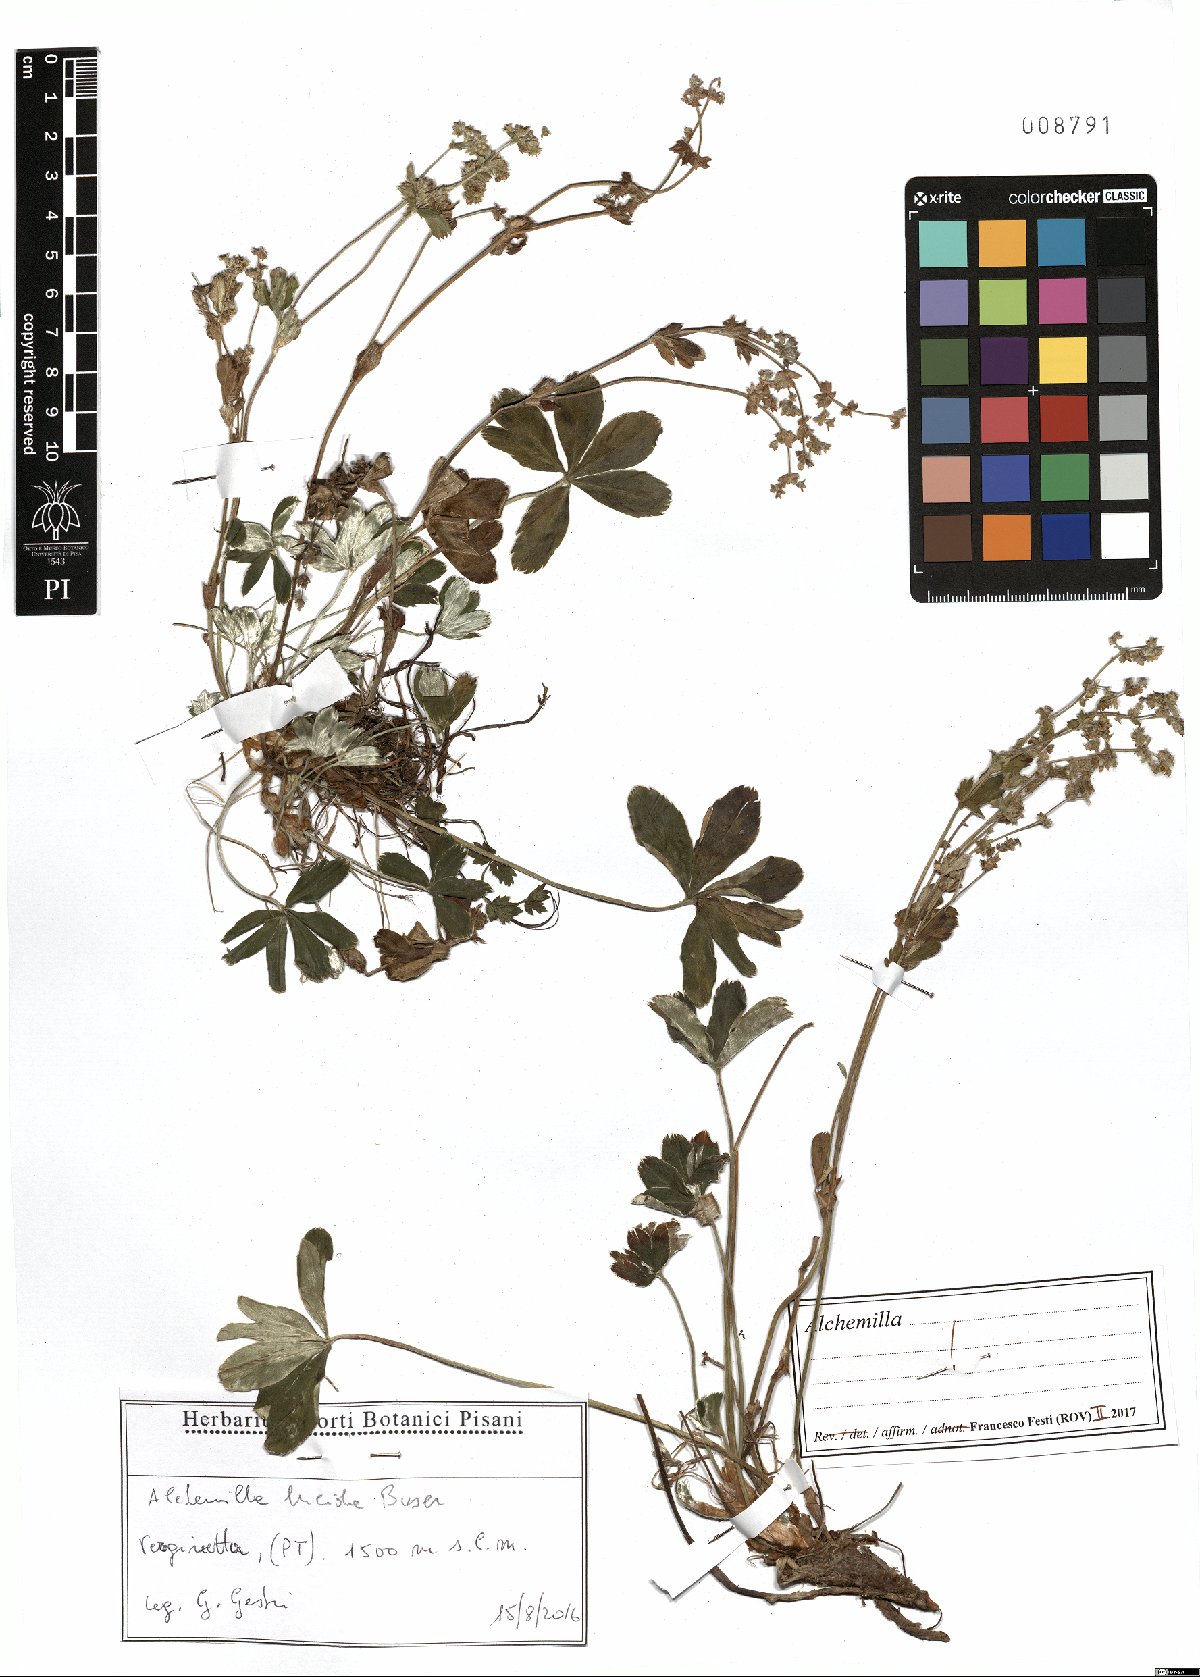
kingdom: Plantae
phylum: Tracheophyta
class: Magnoliopsida
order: Rosales
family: Rosaceae
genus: Alchemilla
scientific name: Alchemilla lucida
